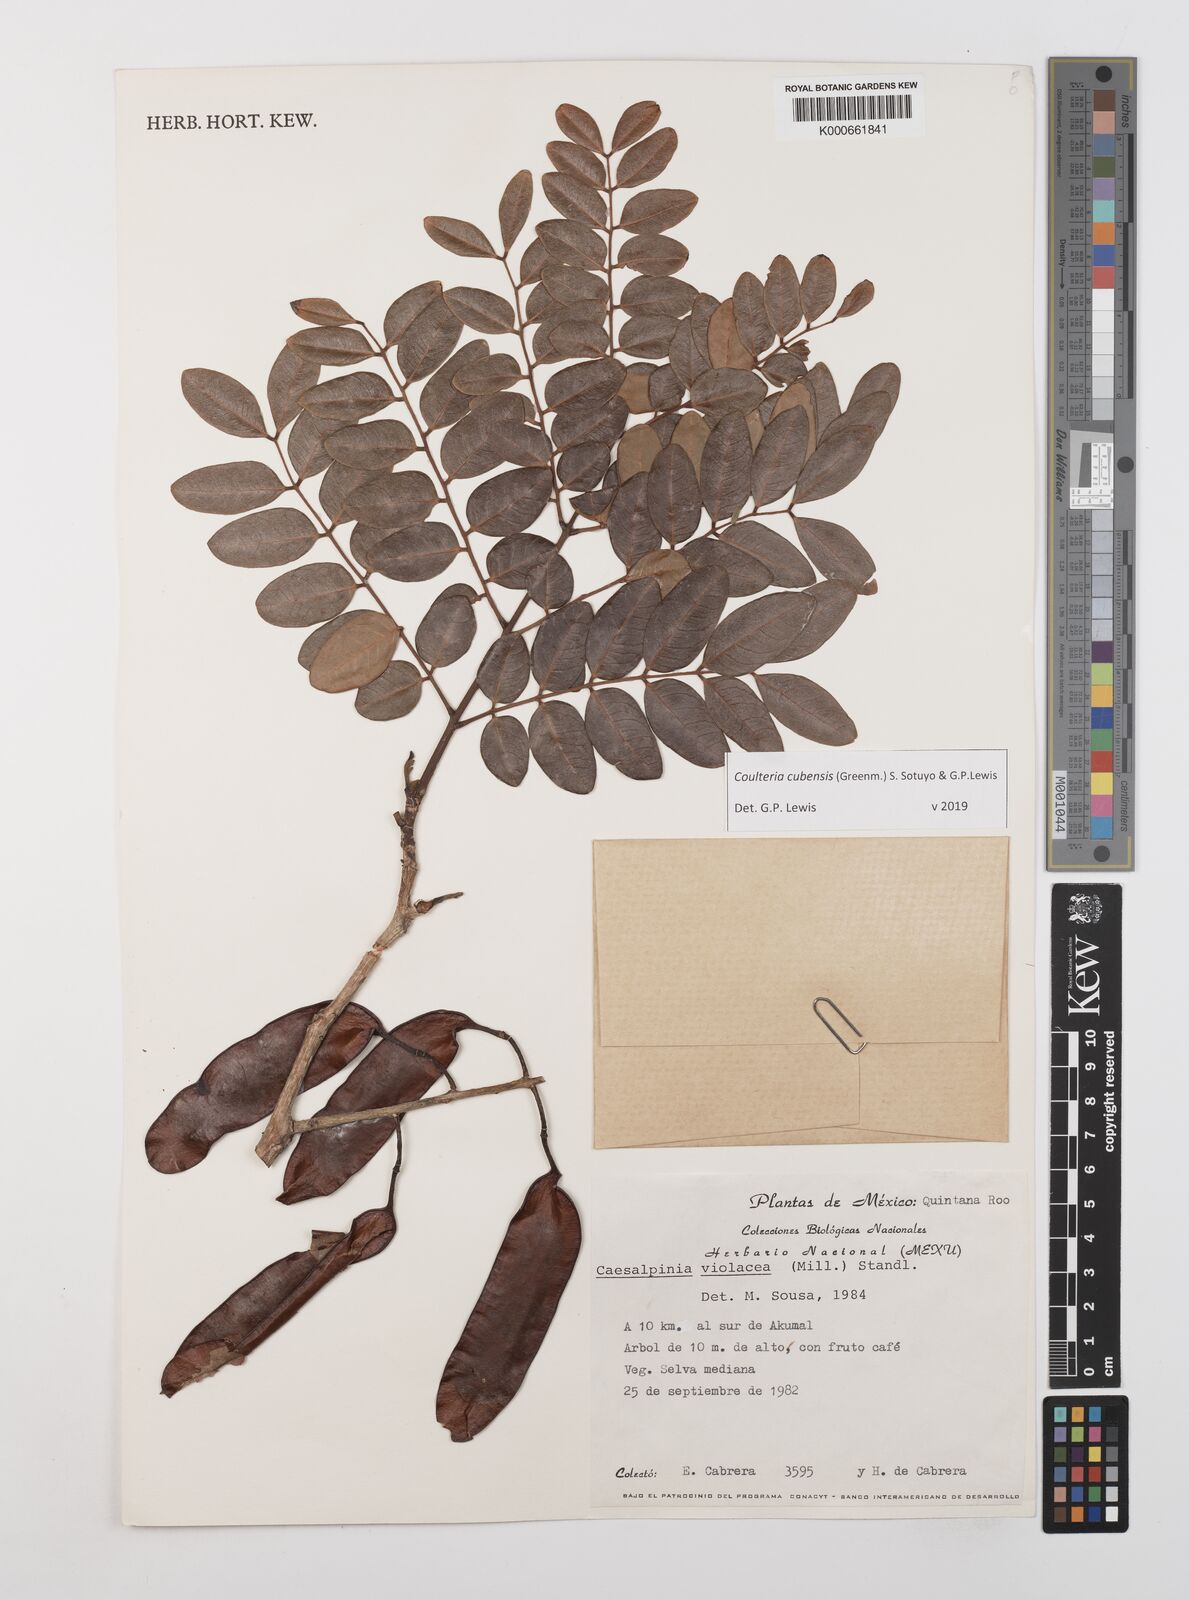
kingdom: Plantae
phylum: Tracheophyta
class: Magnoliopsida
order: Fabales
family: Fabaceae
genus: Coulteria
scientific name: Coulteria cubensis
